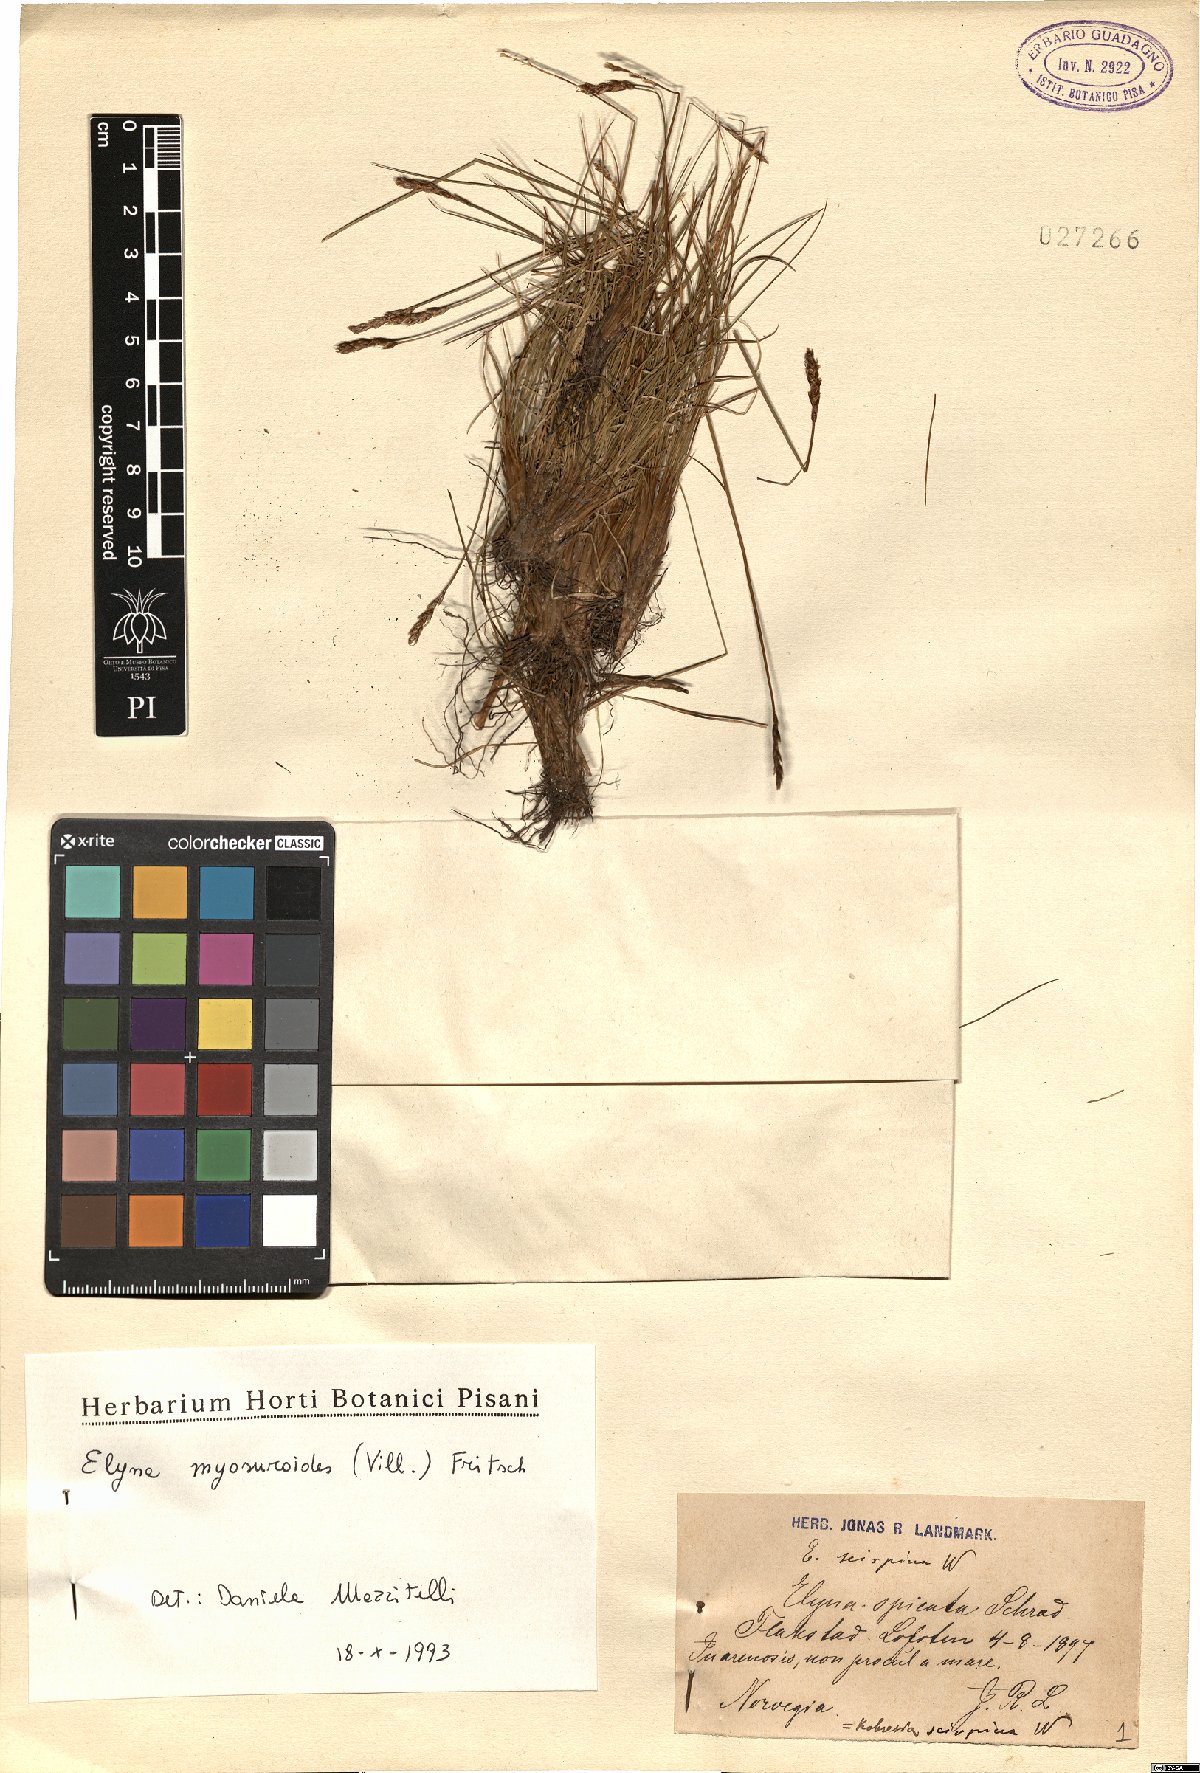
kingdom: Plantae
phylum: Tracheophyta
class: Liliopsida
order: Poales
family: Cyperaceae
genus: Carex
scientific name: Carex myosuroides
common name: Bellard's bog sedge
